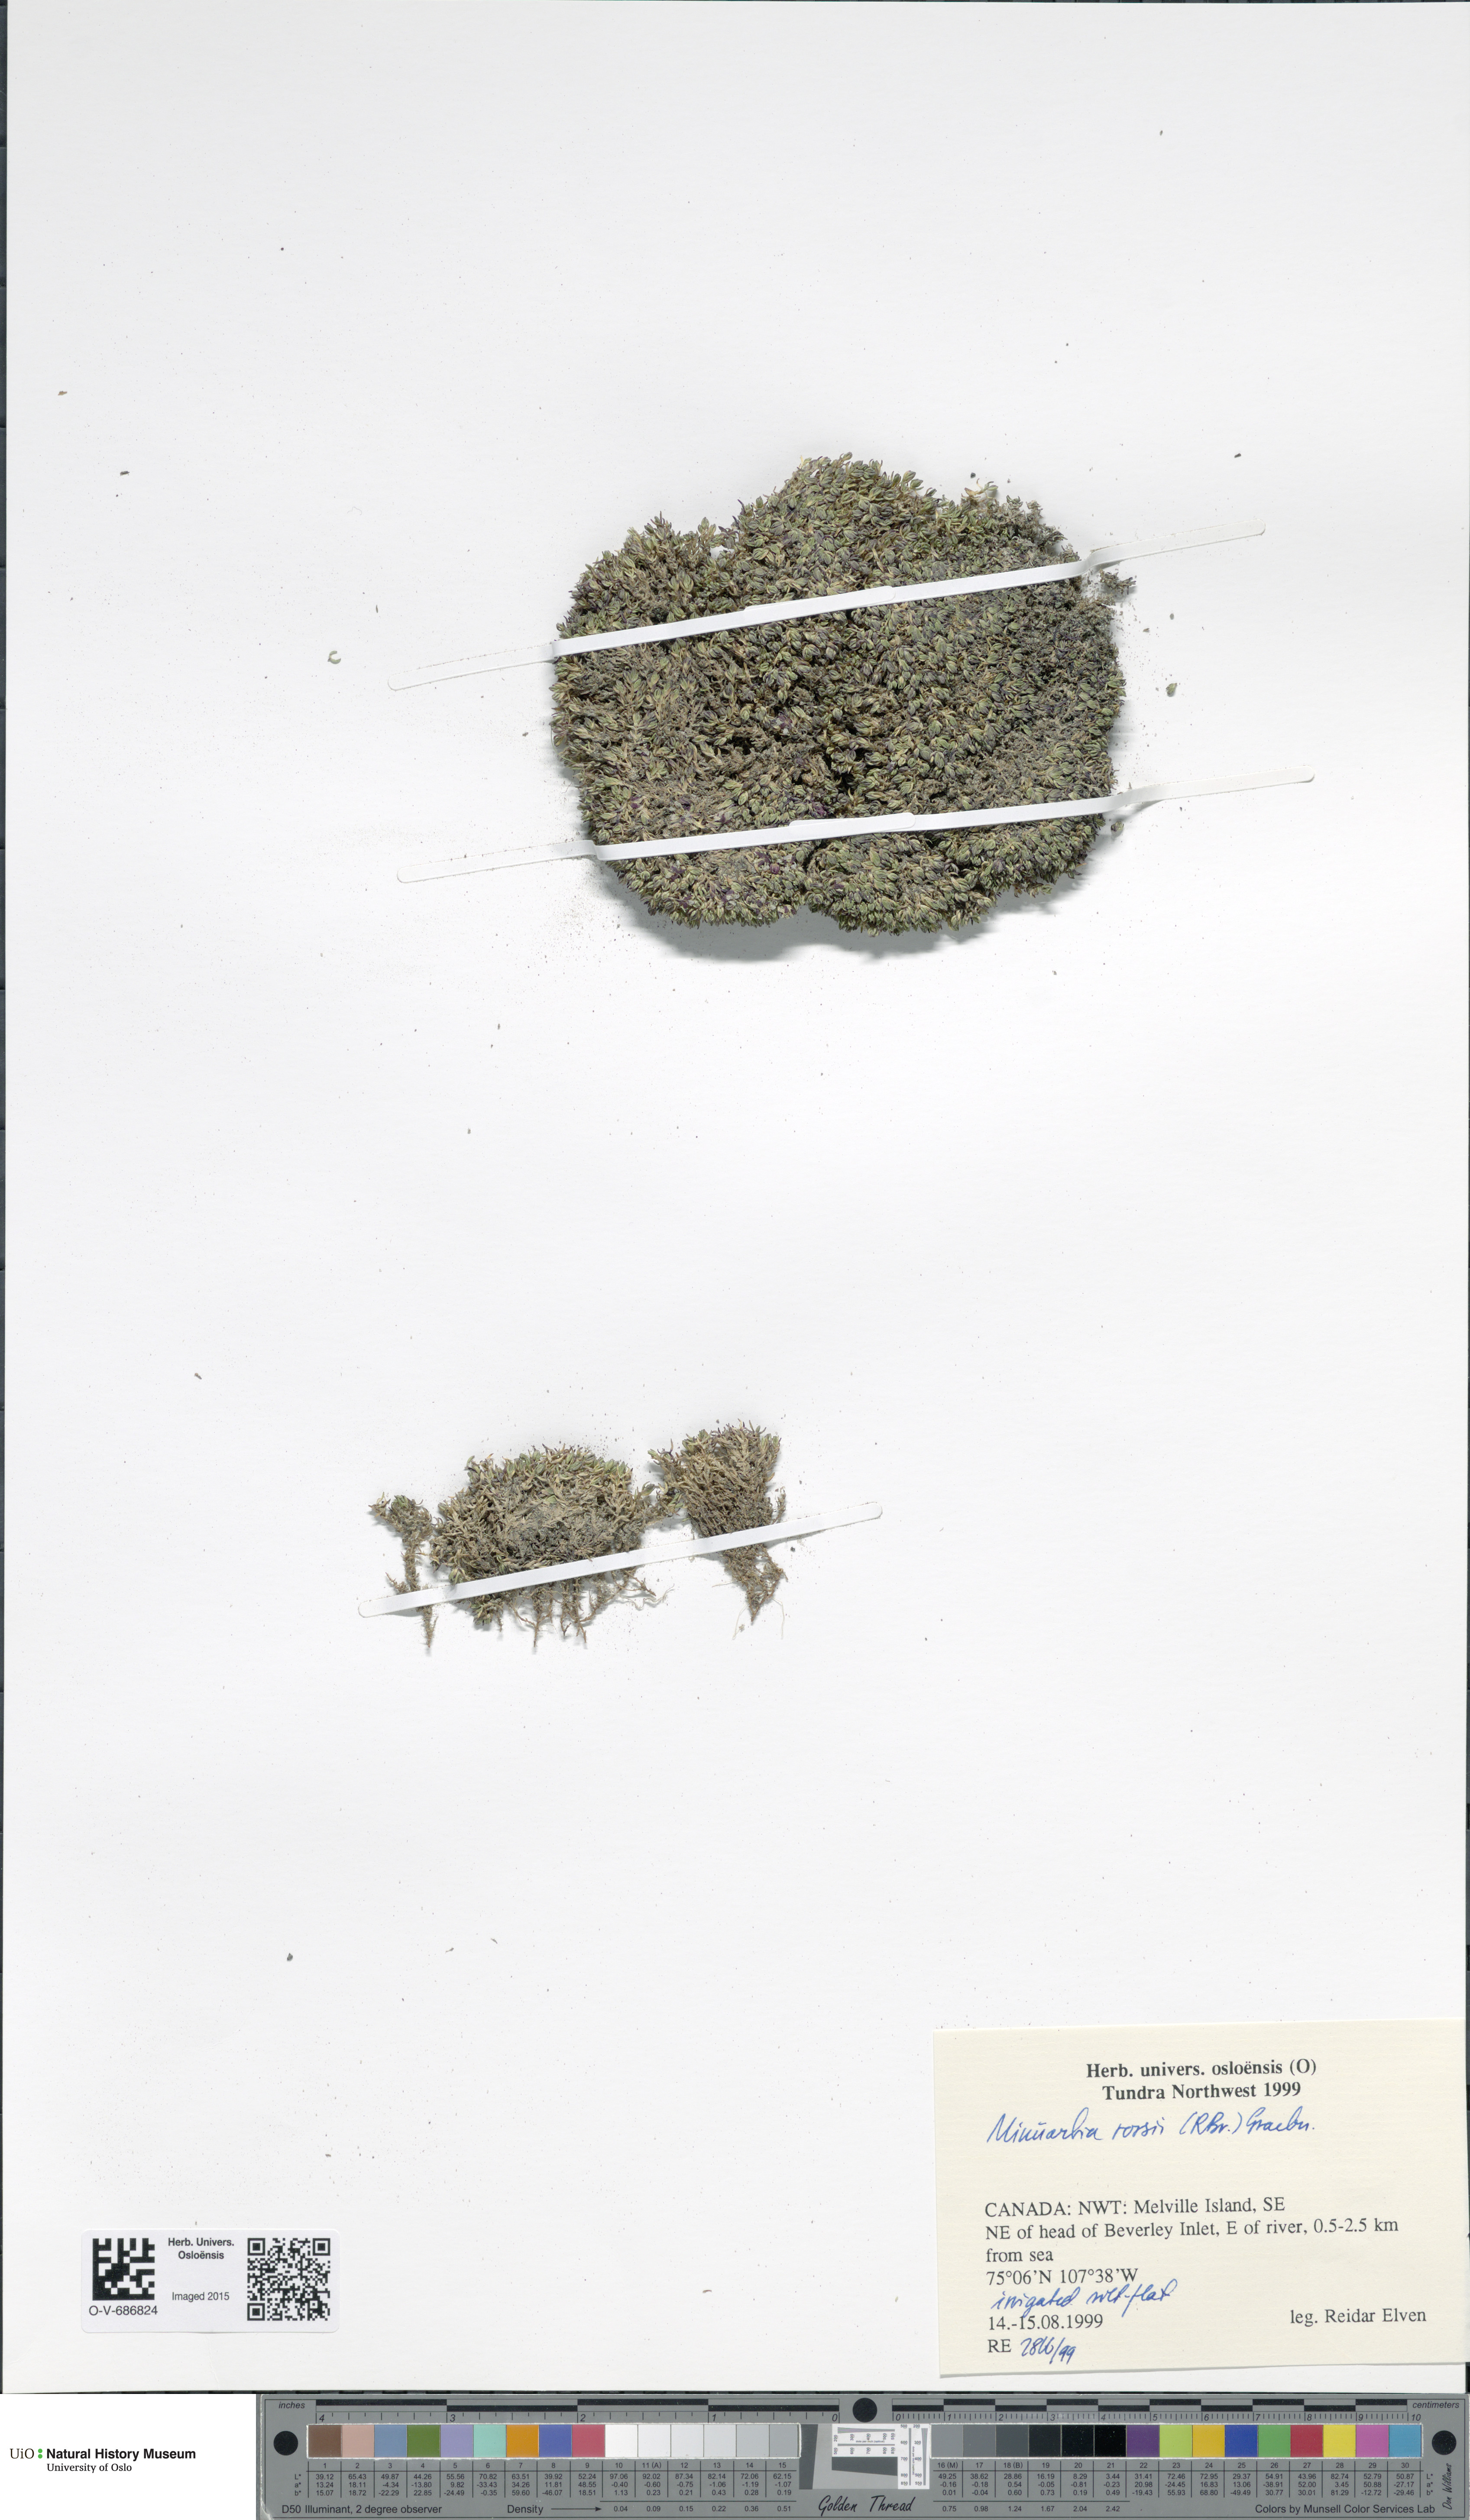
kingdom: Plantae
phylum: Tracheophyta
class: Magnoliopsida
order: Caryophyllales
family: Caryophyllaceae
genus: Sabulina
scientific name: Sabulina rosei
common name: Ross' sandwort
